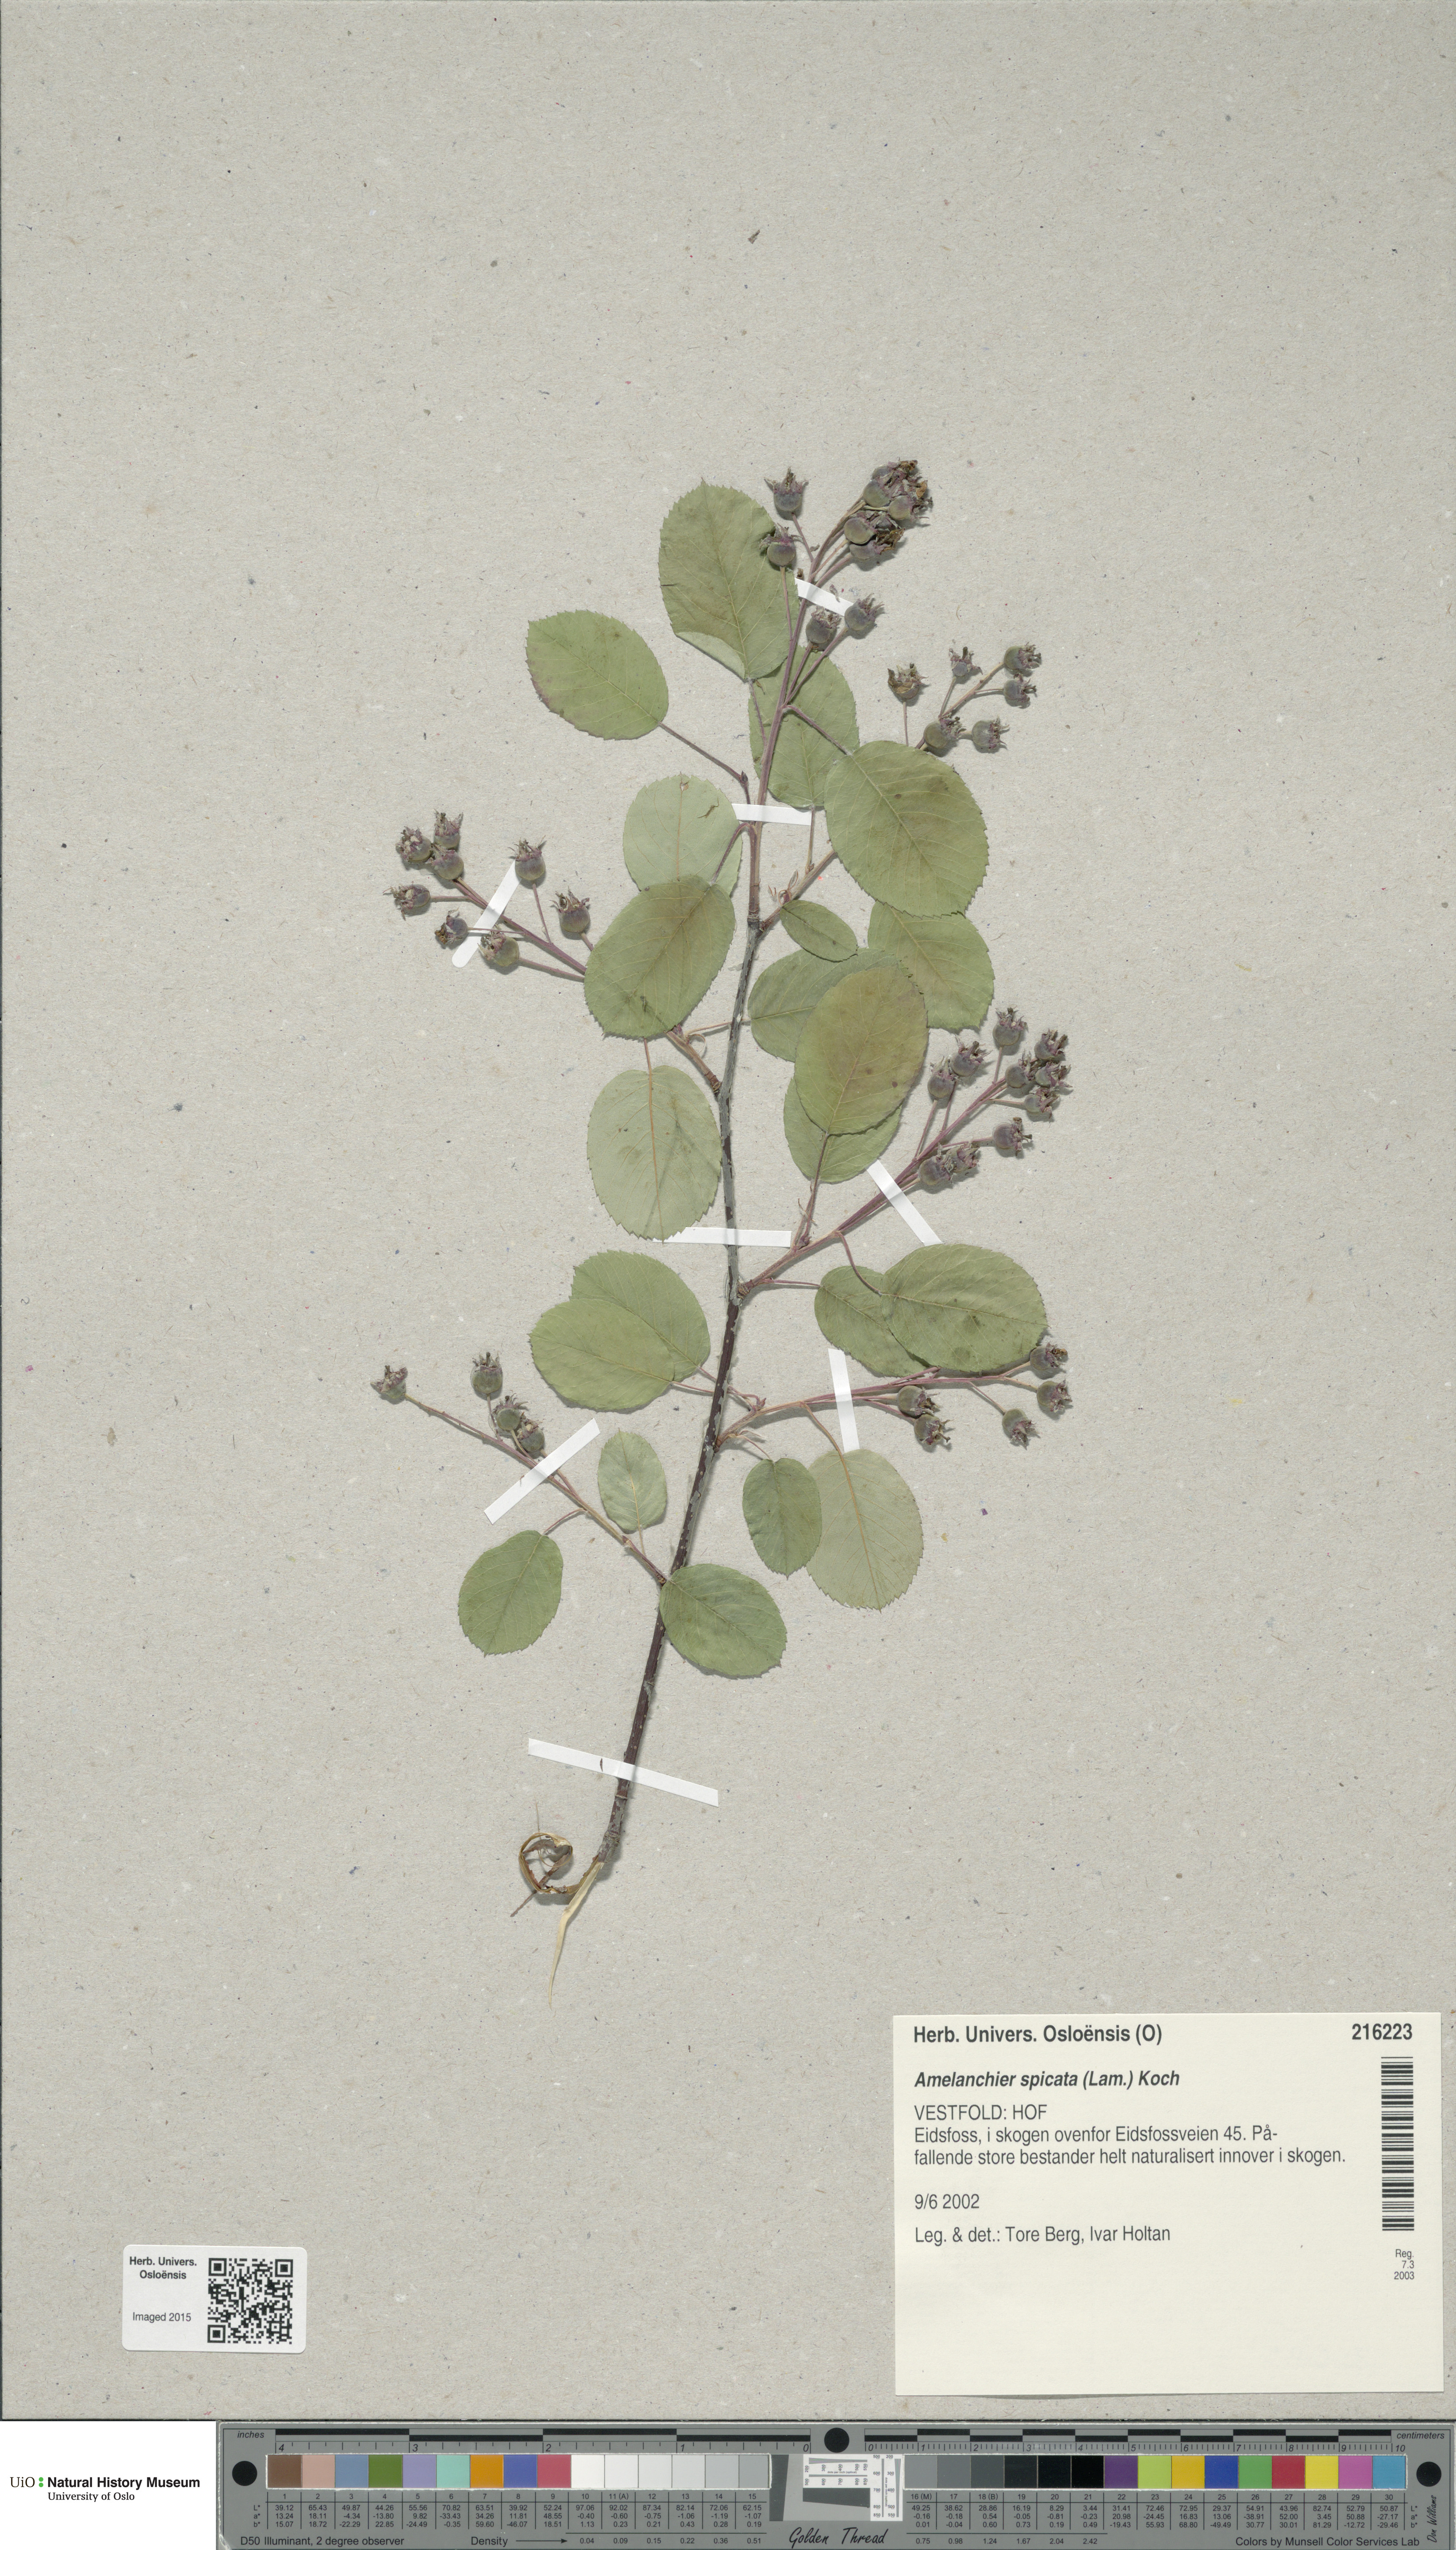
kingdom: Plantae
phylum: Tracheophyta
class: Magnoliopsida
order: Rosales
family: Rosaceae
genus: Amelanchier
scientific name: Amelanchier humilis
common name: Low juneberry
